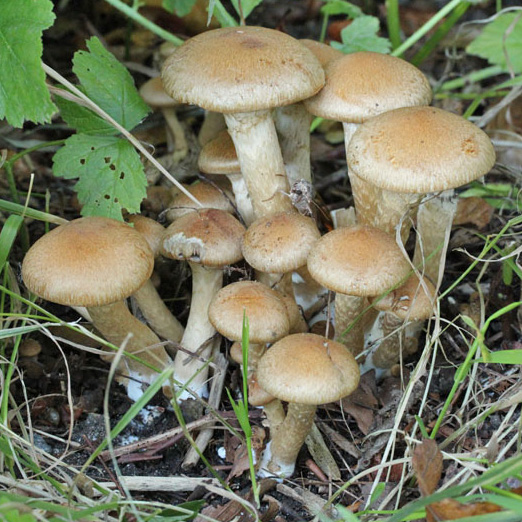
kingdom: Fungi
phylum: Basidiomycota
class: Agaricomycetes
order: Agaricales
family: Psathyrellaceae
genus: Lacrymaria
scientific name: Lacrymaria lacrymabunda
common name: grædende mørkhat
